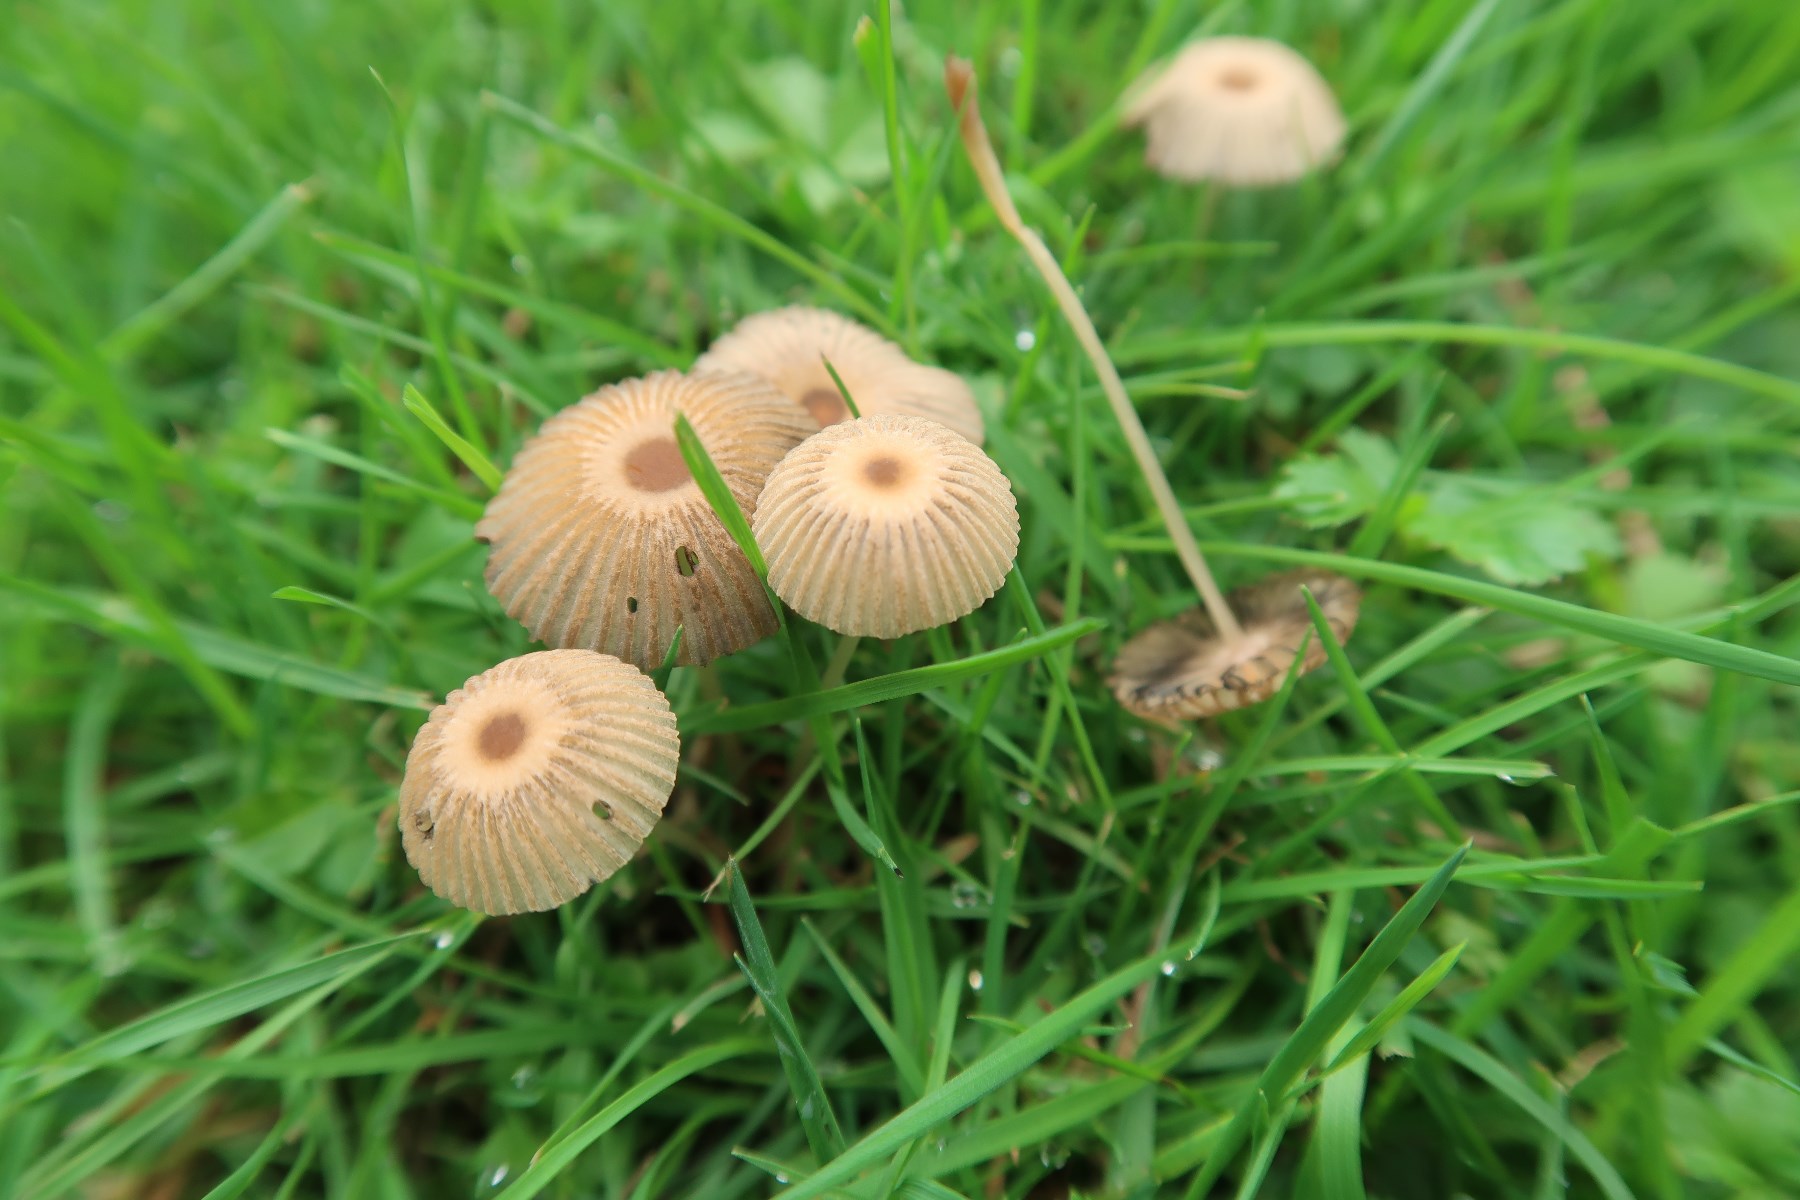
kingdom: Fungi
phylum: Basidiomycota
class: Agaricomycetes
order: Agaricales
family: Psathyrellaceae
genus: Parasola
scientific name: Parasola schroeteri
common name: bredsporet hjulhat
